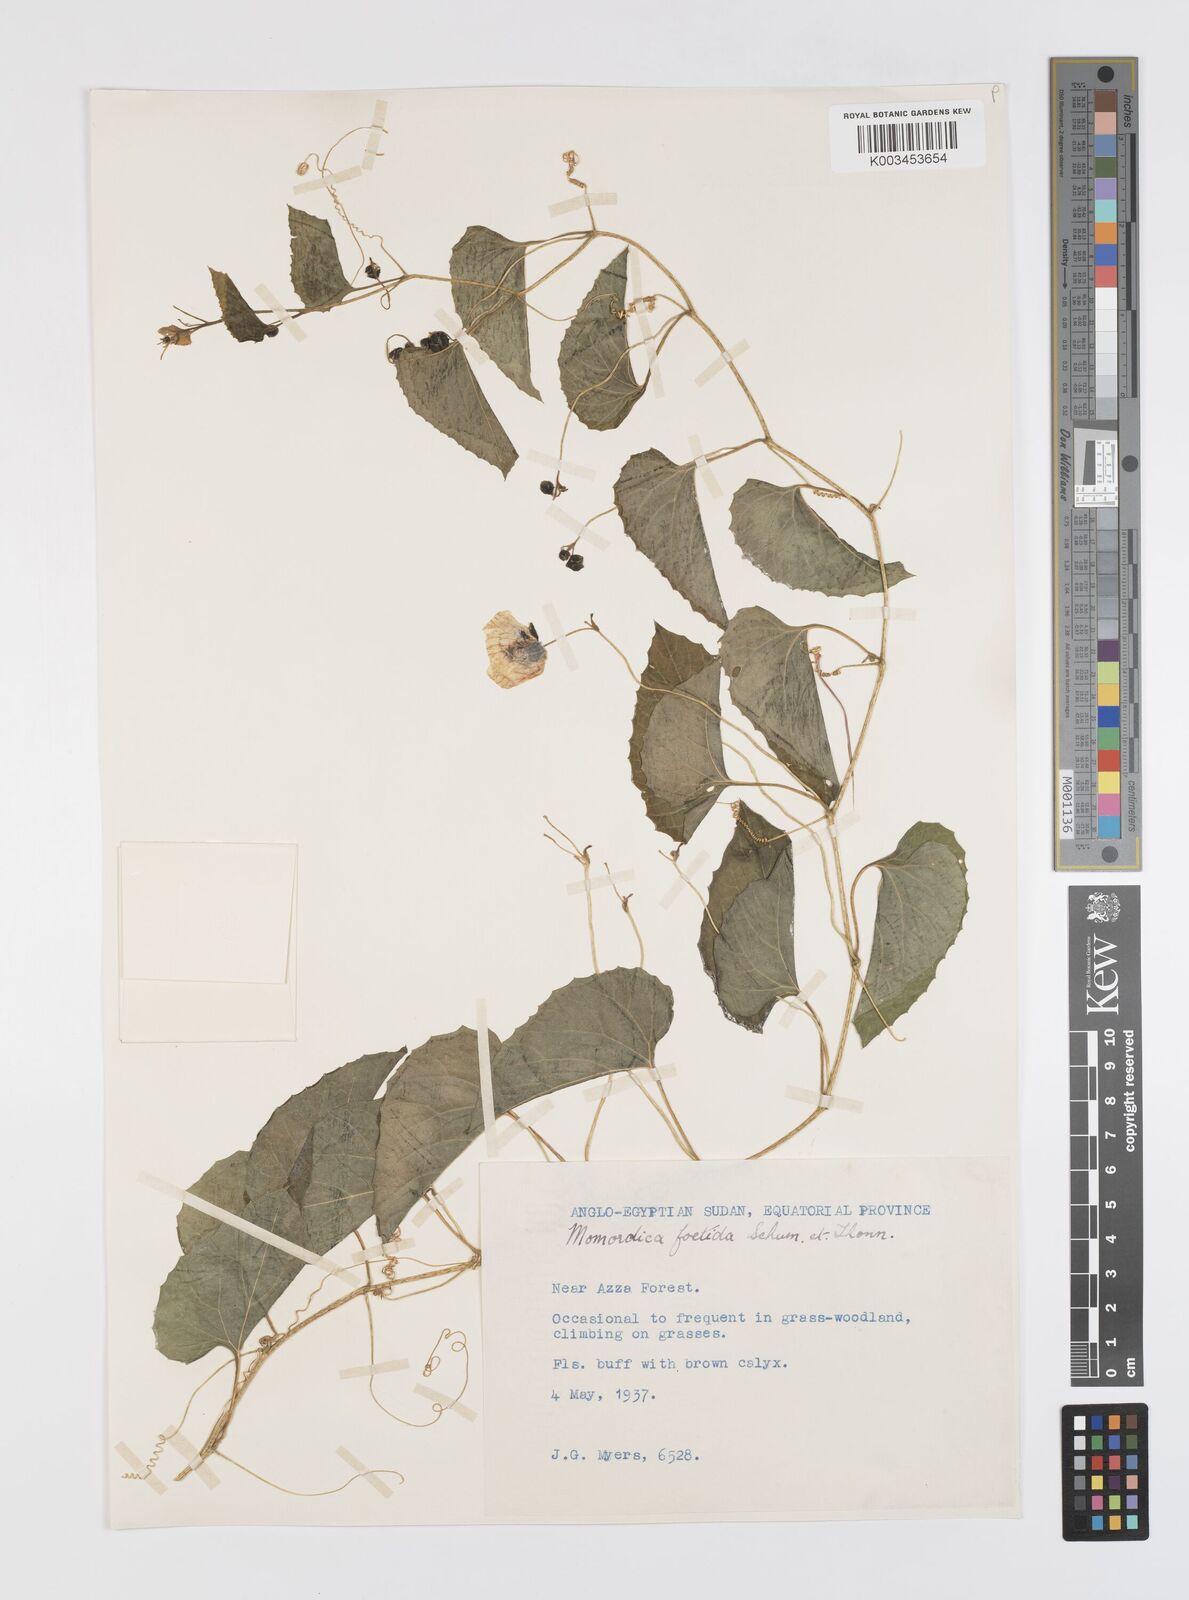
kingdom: Plantae
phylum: Tracheophyta
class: Magnoliopsida
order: Cucurbitales
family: Cucurbitaceae
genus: Momordica
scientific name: Momordica foetida
